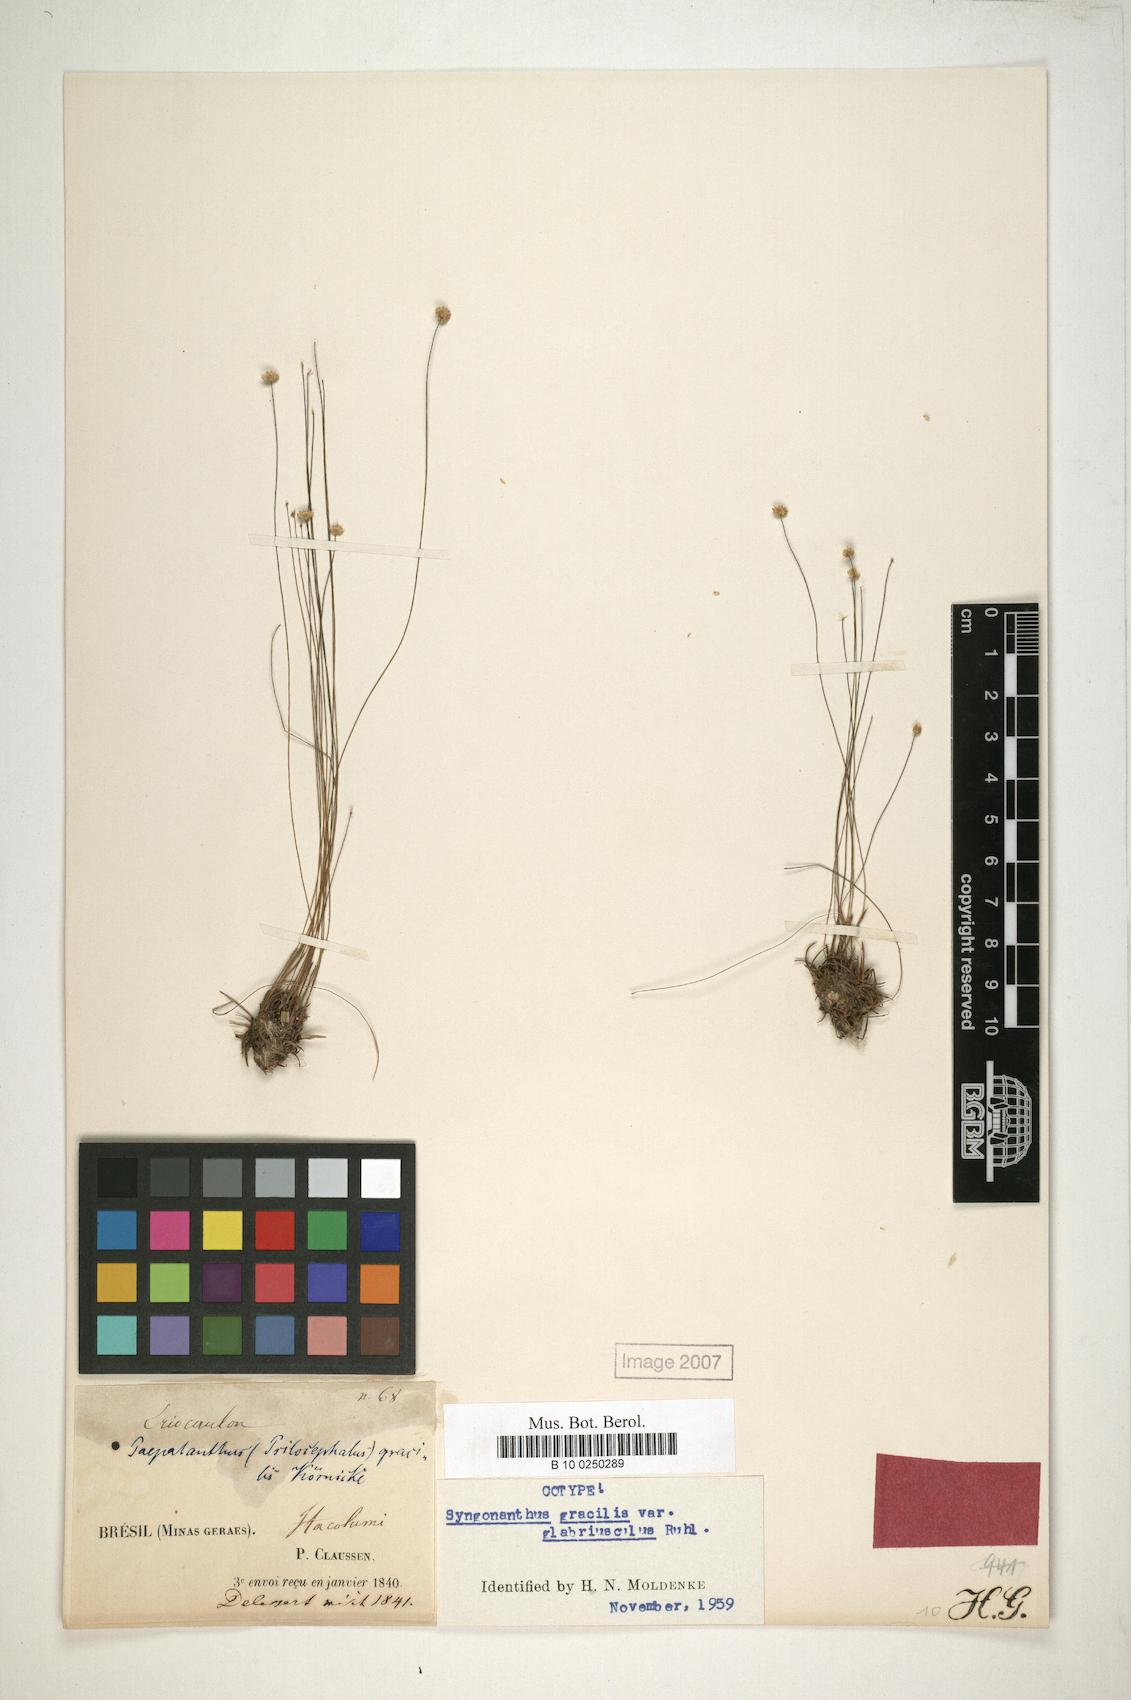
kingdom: Plantae
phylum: Tracheophyta
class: Liliopsida
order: Poales
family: Eriocaulaceae
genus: Syngonanthus
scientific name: Syngonanthus gracilis
